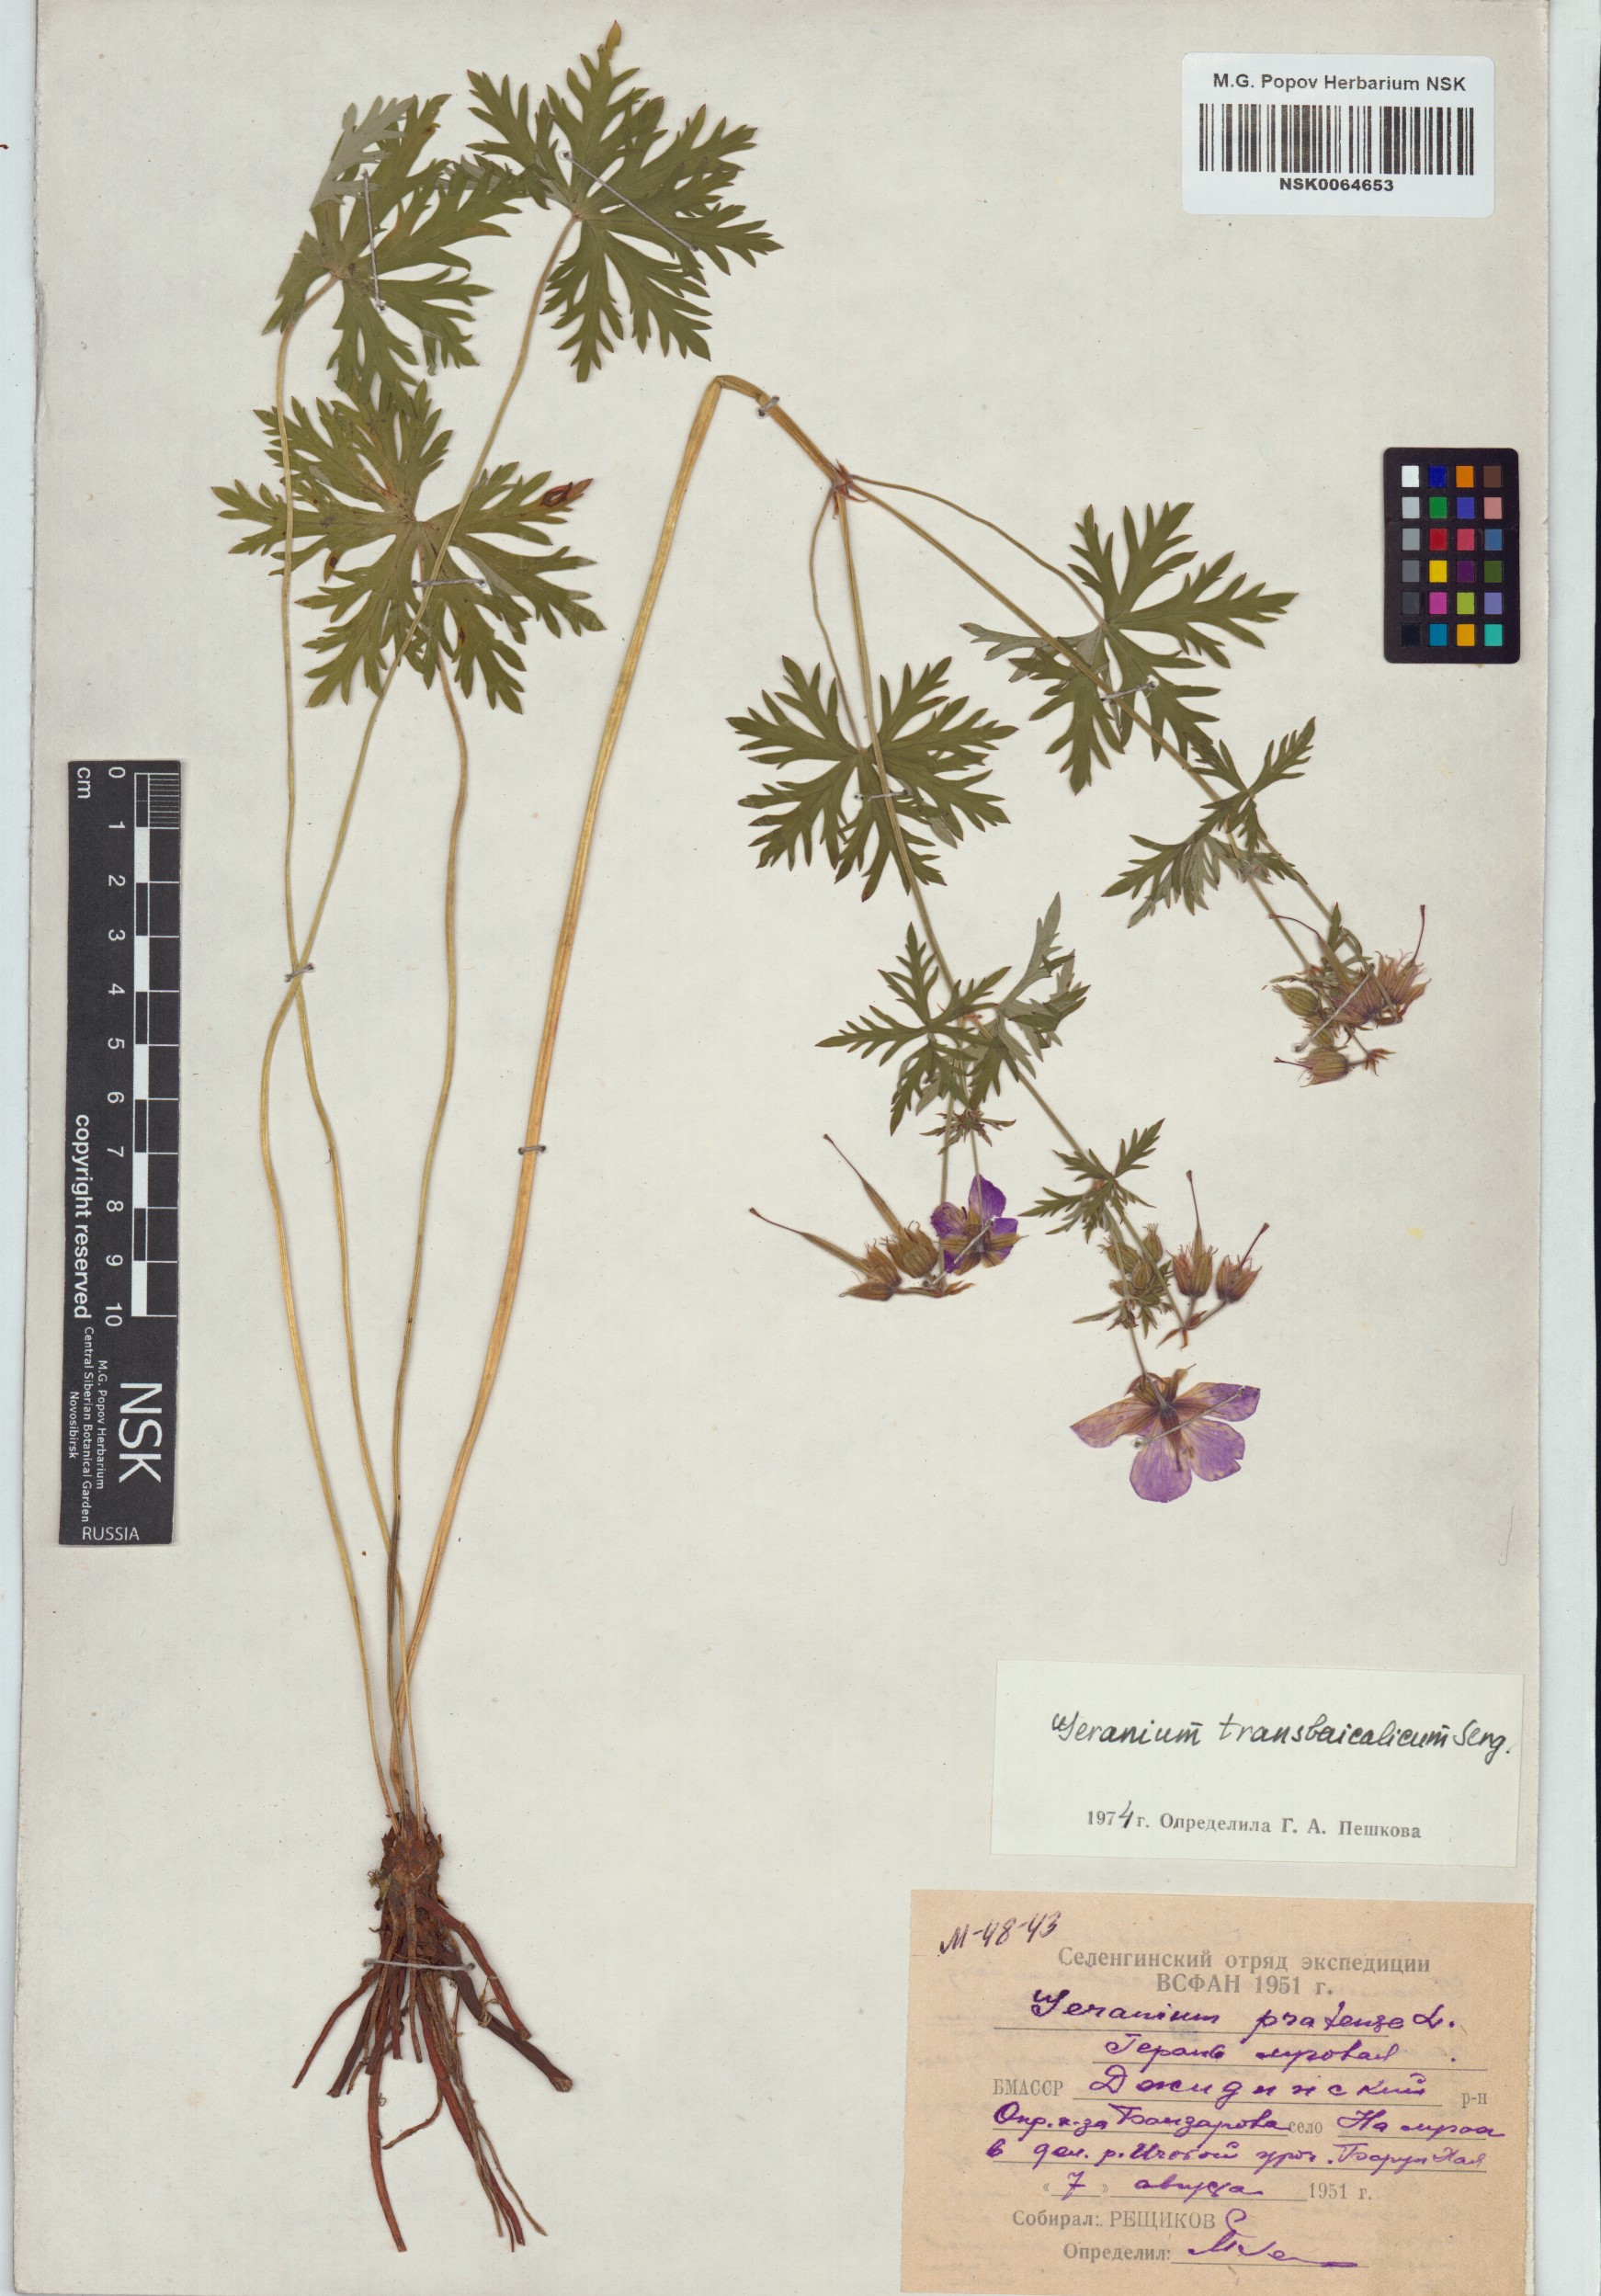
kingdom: Plantae
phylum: Tracheophyta
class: Magnoliopsida
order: Geraniales
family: Geraniaceae
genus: Geranium
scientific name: Geranium pratense
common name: Meadow crane's-bill
